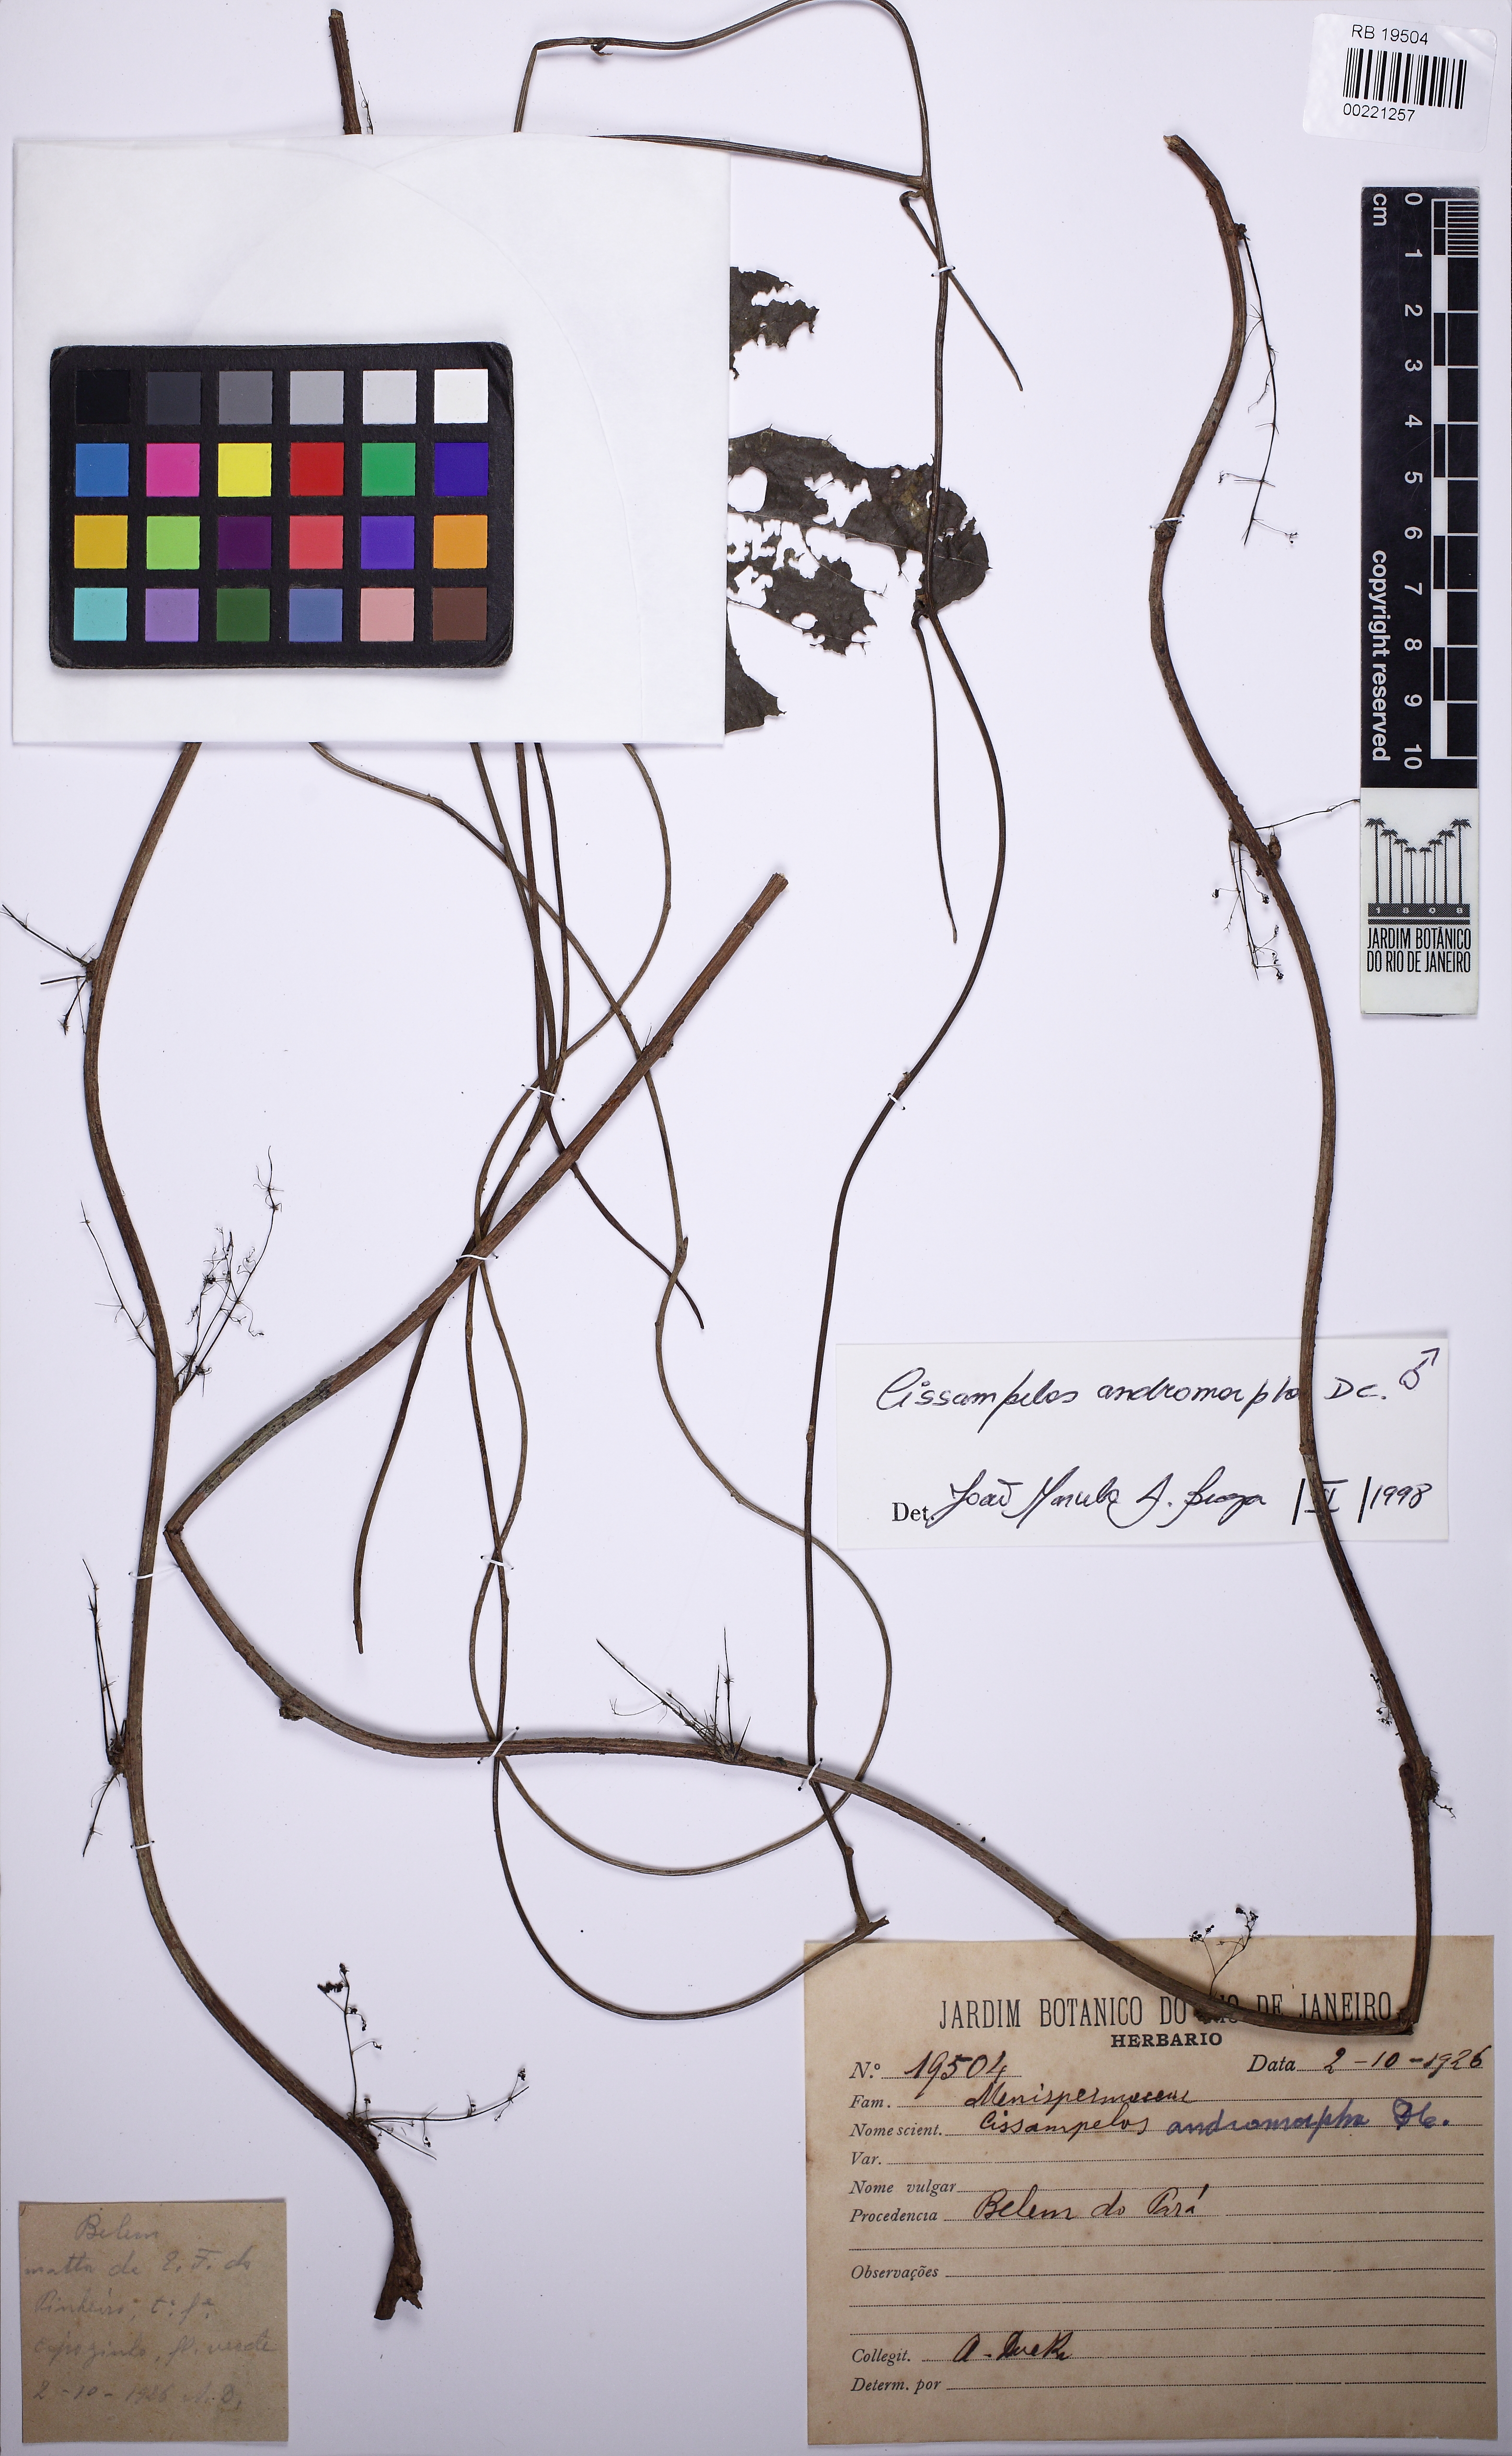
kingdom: Plantae
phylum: Tracheophyta
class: Magnoliopsida
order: Ranunculales
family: Menispermaceae
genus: Cissampelos
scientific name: Cissampelos andromorpha
